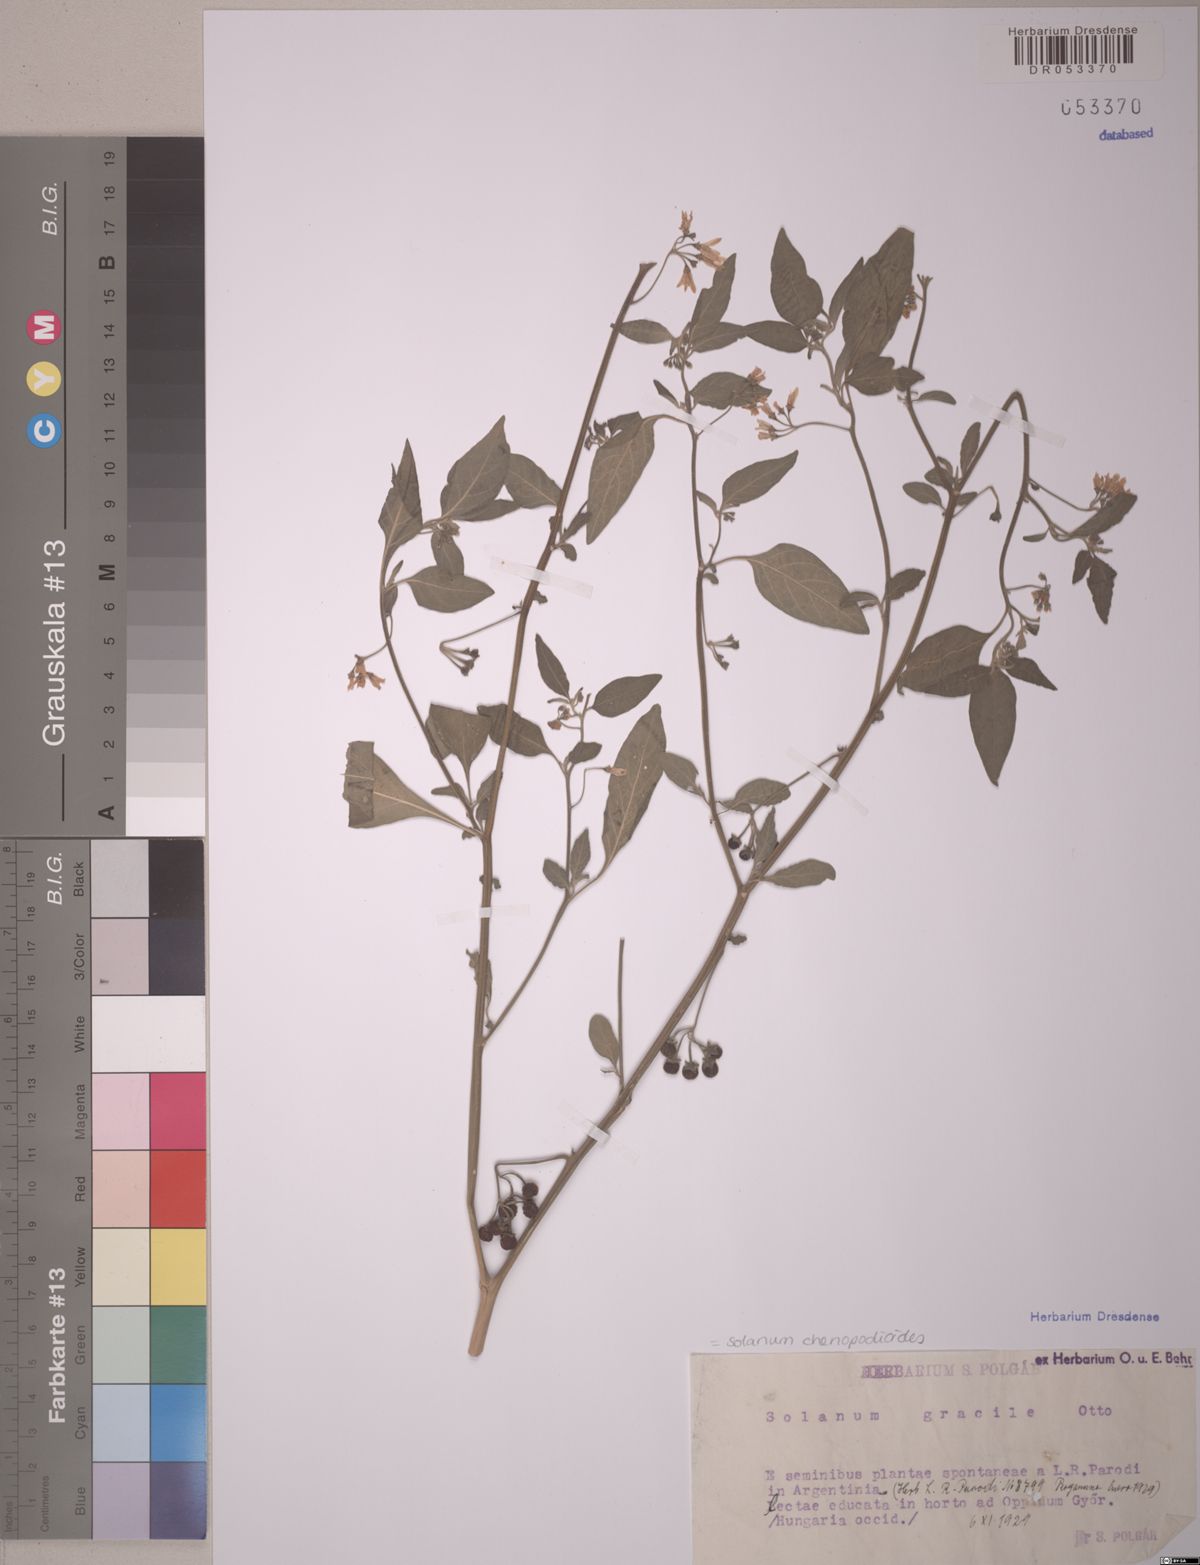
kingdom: Plantae
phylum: Tracheophyta
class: Magnoliopsida
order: Solanales
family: Solanaceae
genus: Solanum
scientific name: Solanum chenopodioides
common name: Tall nightshade
